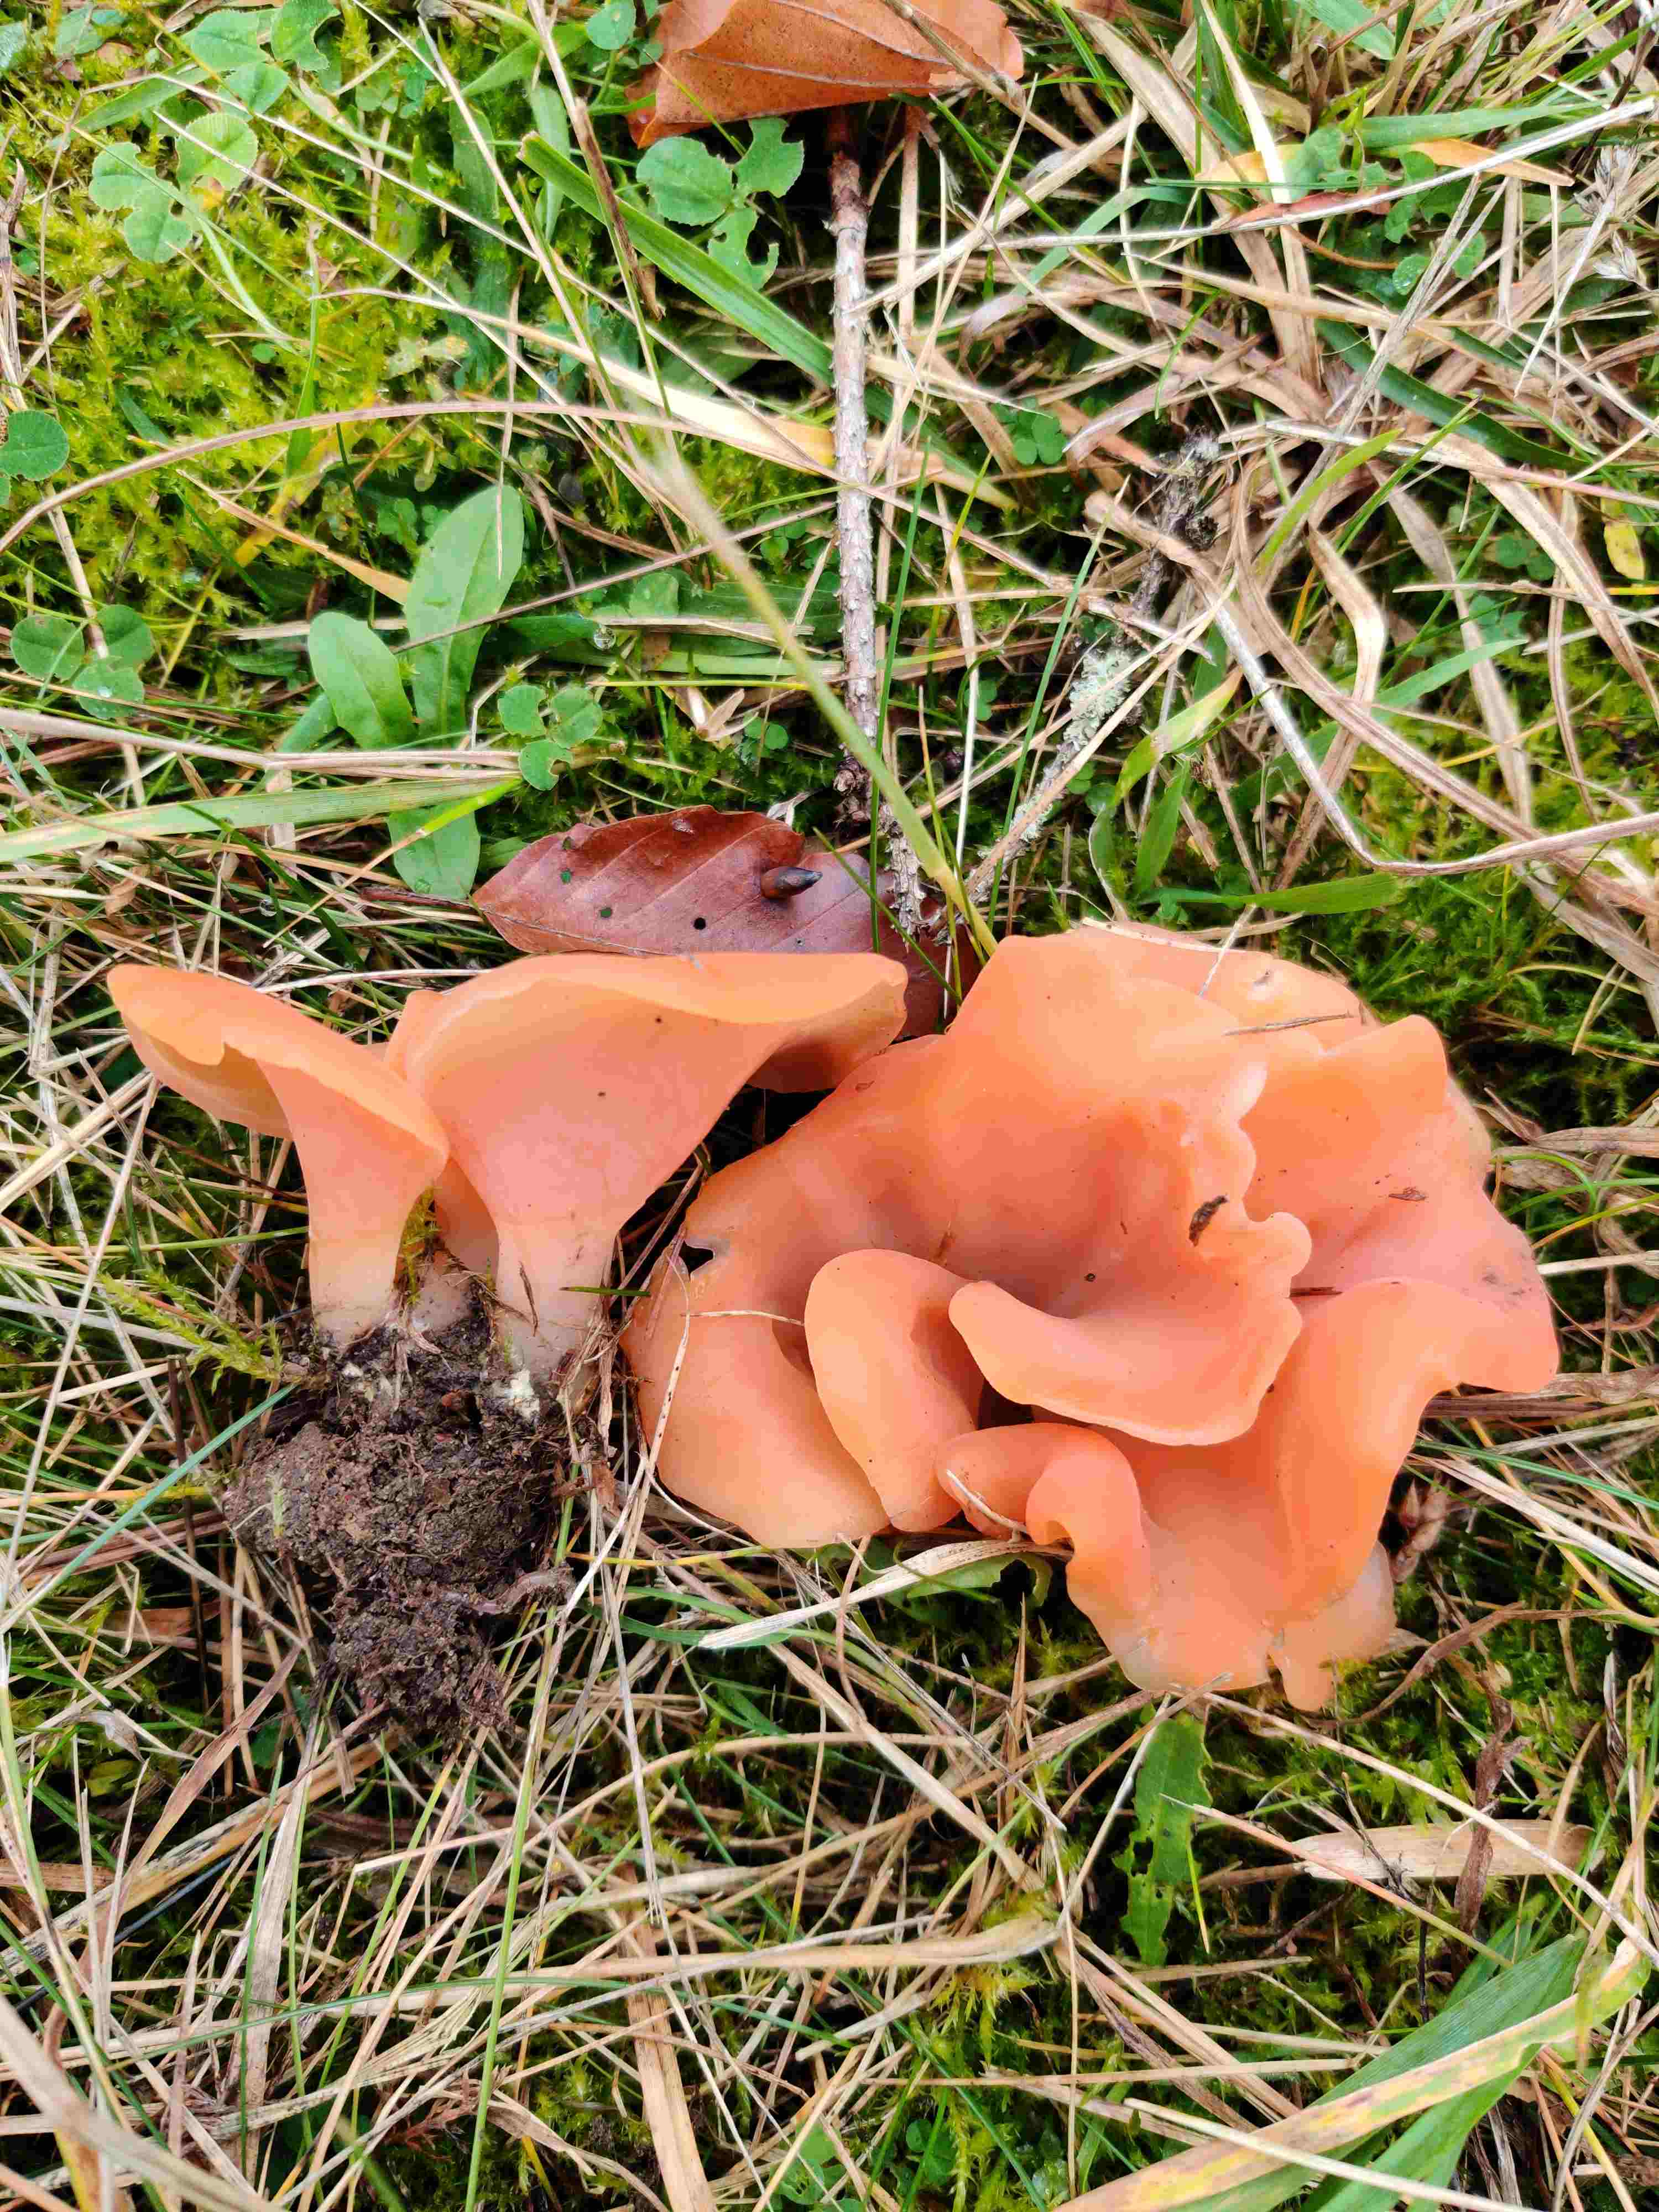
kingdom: Fungi
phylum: Basidiomycota
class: Agaricomycetes
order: Auriculariales
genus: Guepinia
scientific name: Guepinia helvelloides
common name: bævretunge
